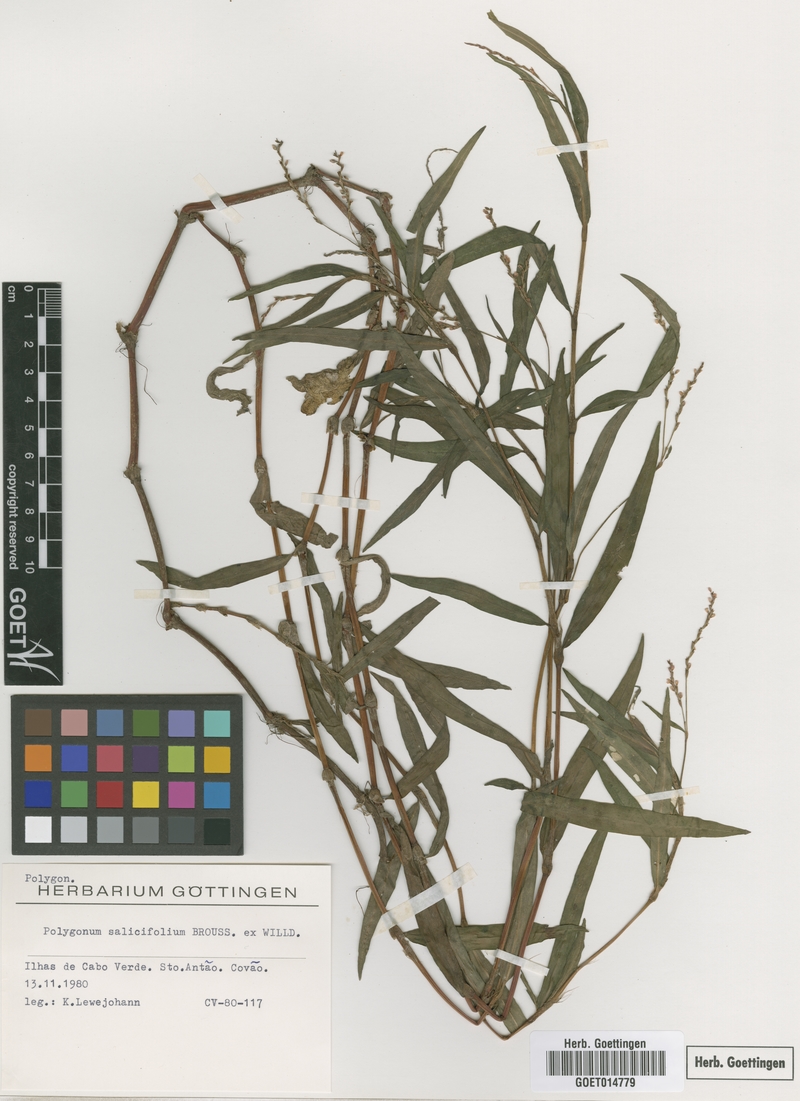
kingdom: Plantae
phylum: Tracheophyta
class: Magnoliopsida
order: Caryophyllales
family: Polygonaceae
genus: Persicaria
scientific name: Persicaria salicifolia
